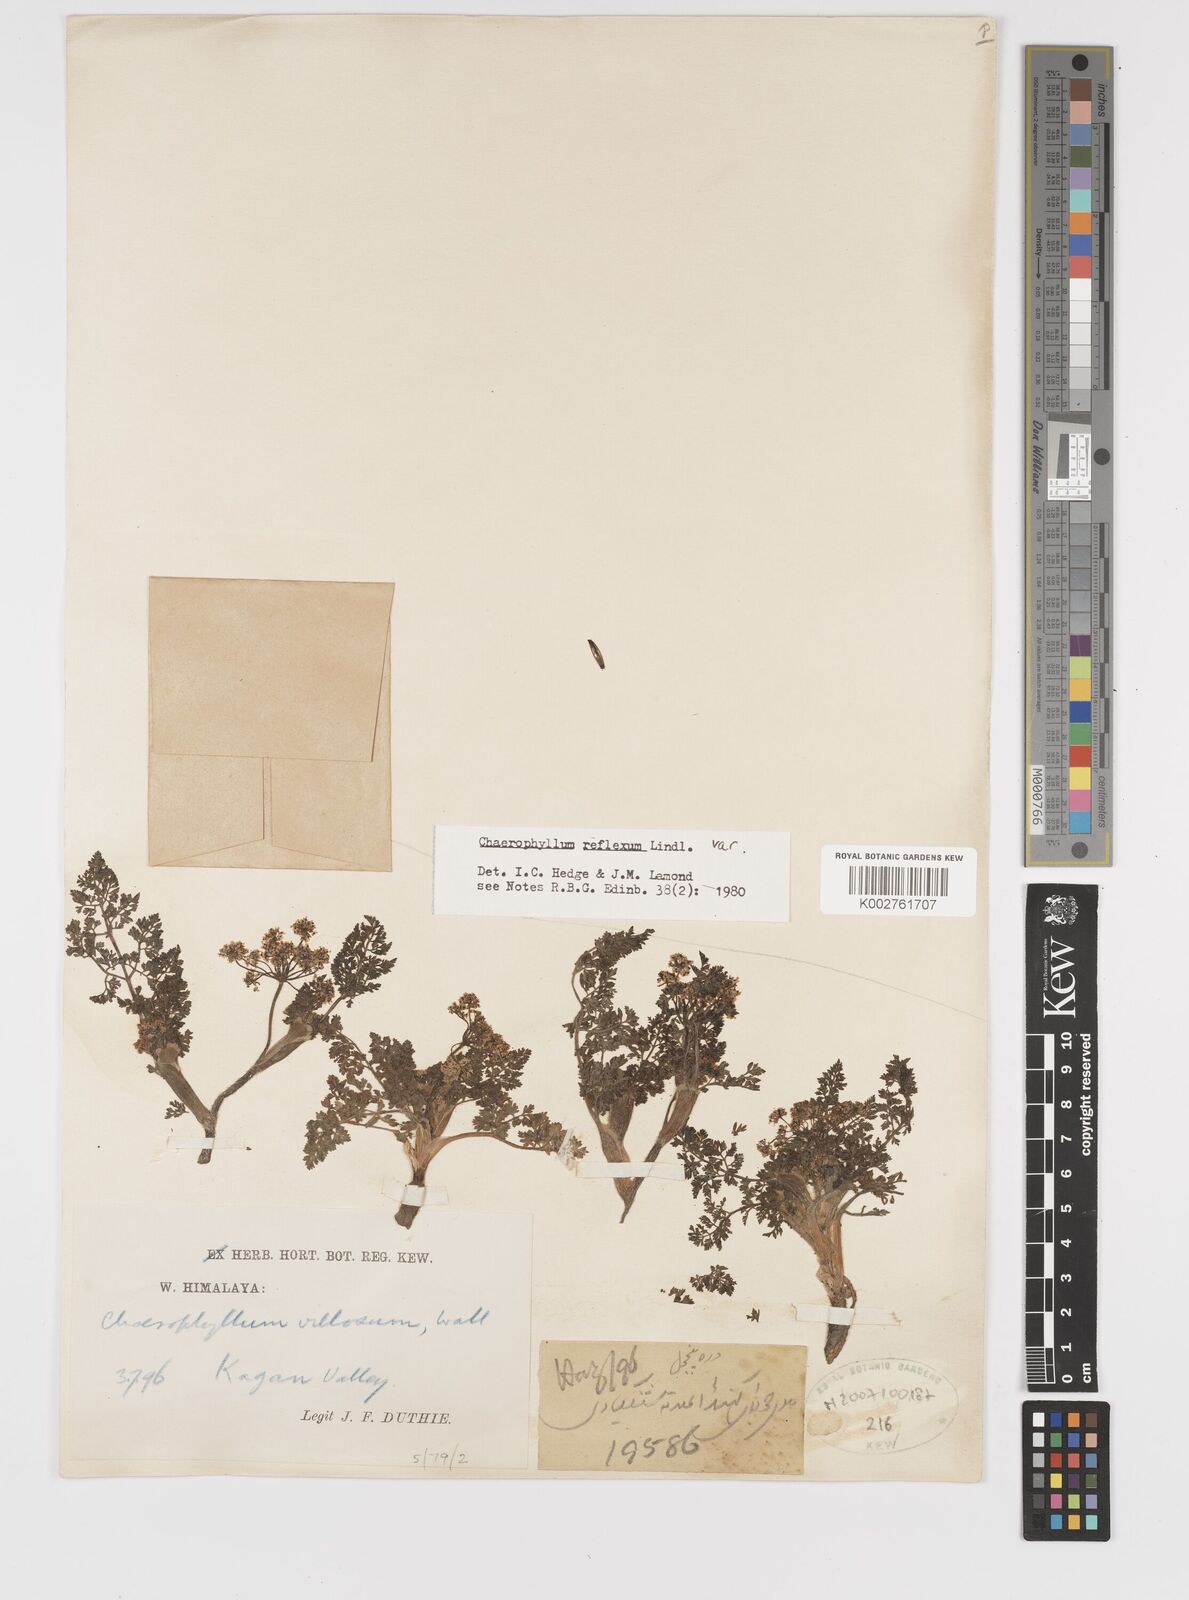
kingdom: Plantae
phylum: Tracheophyta
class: Magnoliopsida
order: Apiales
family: Apiaceae
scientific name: Apiaceae
